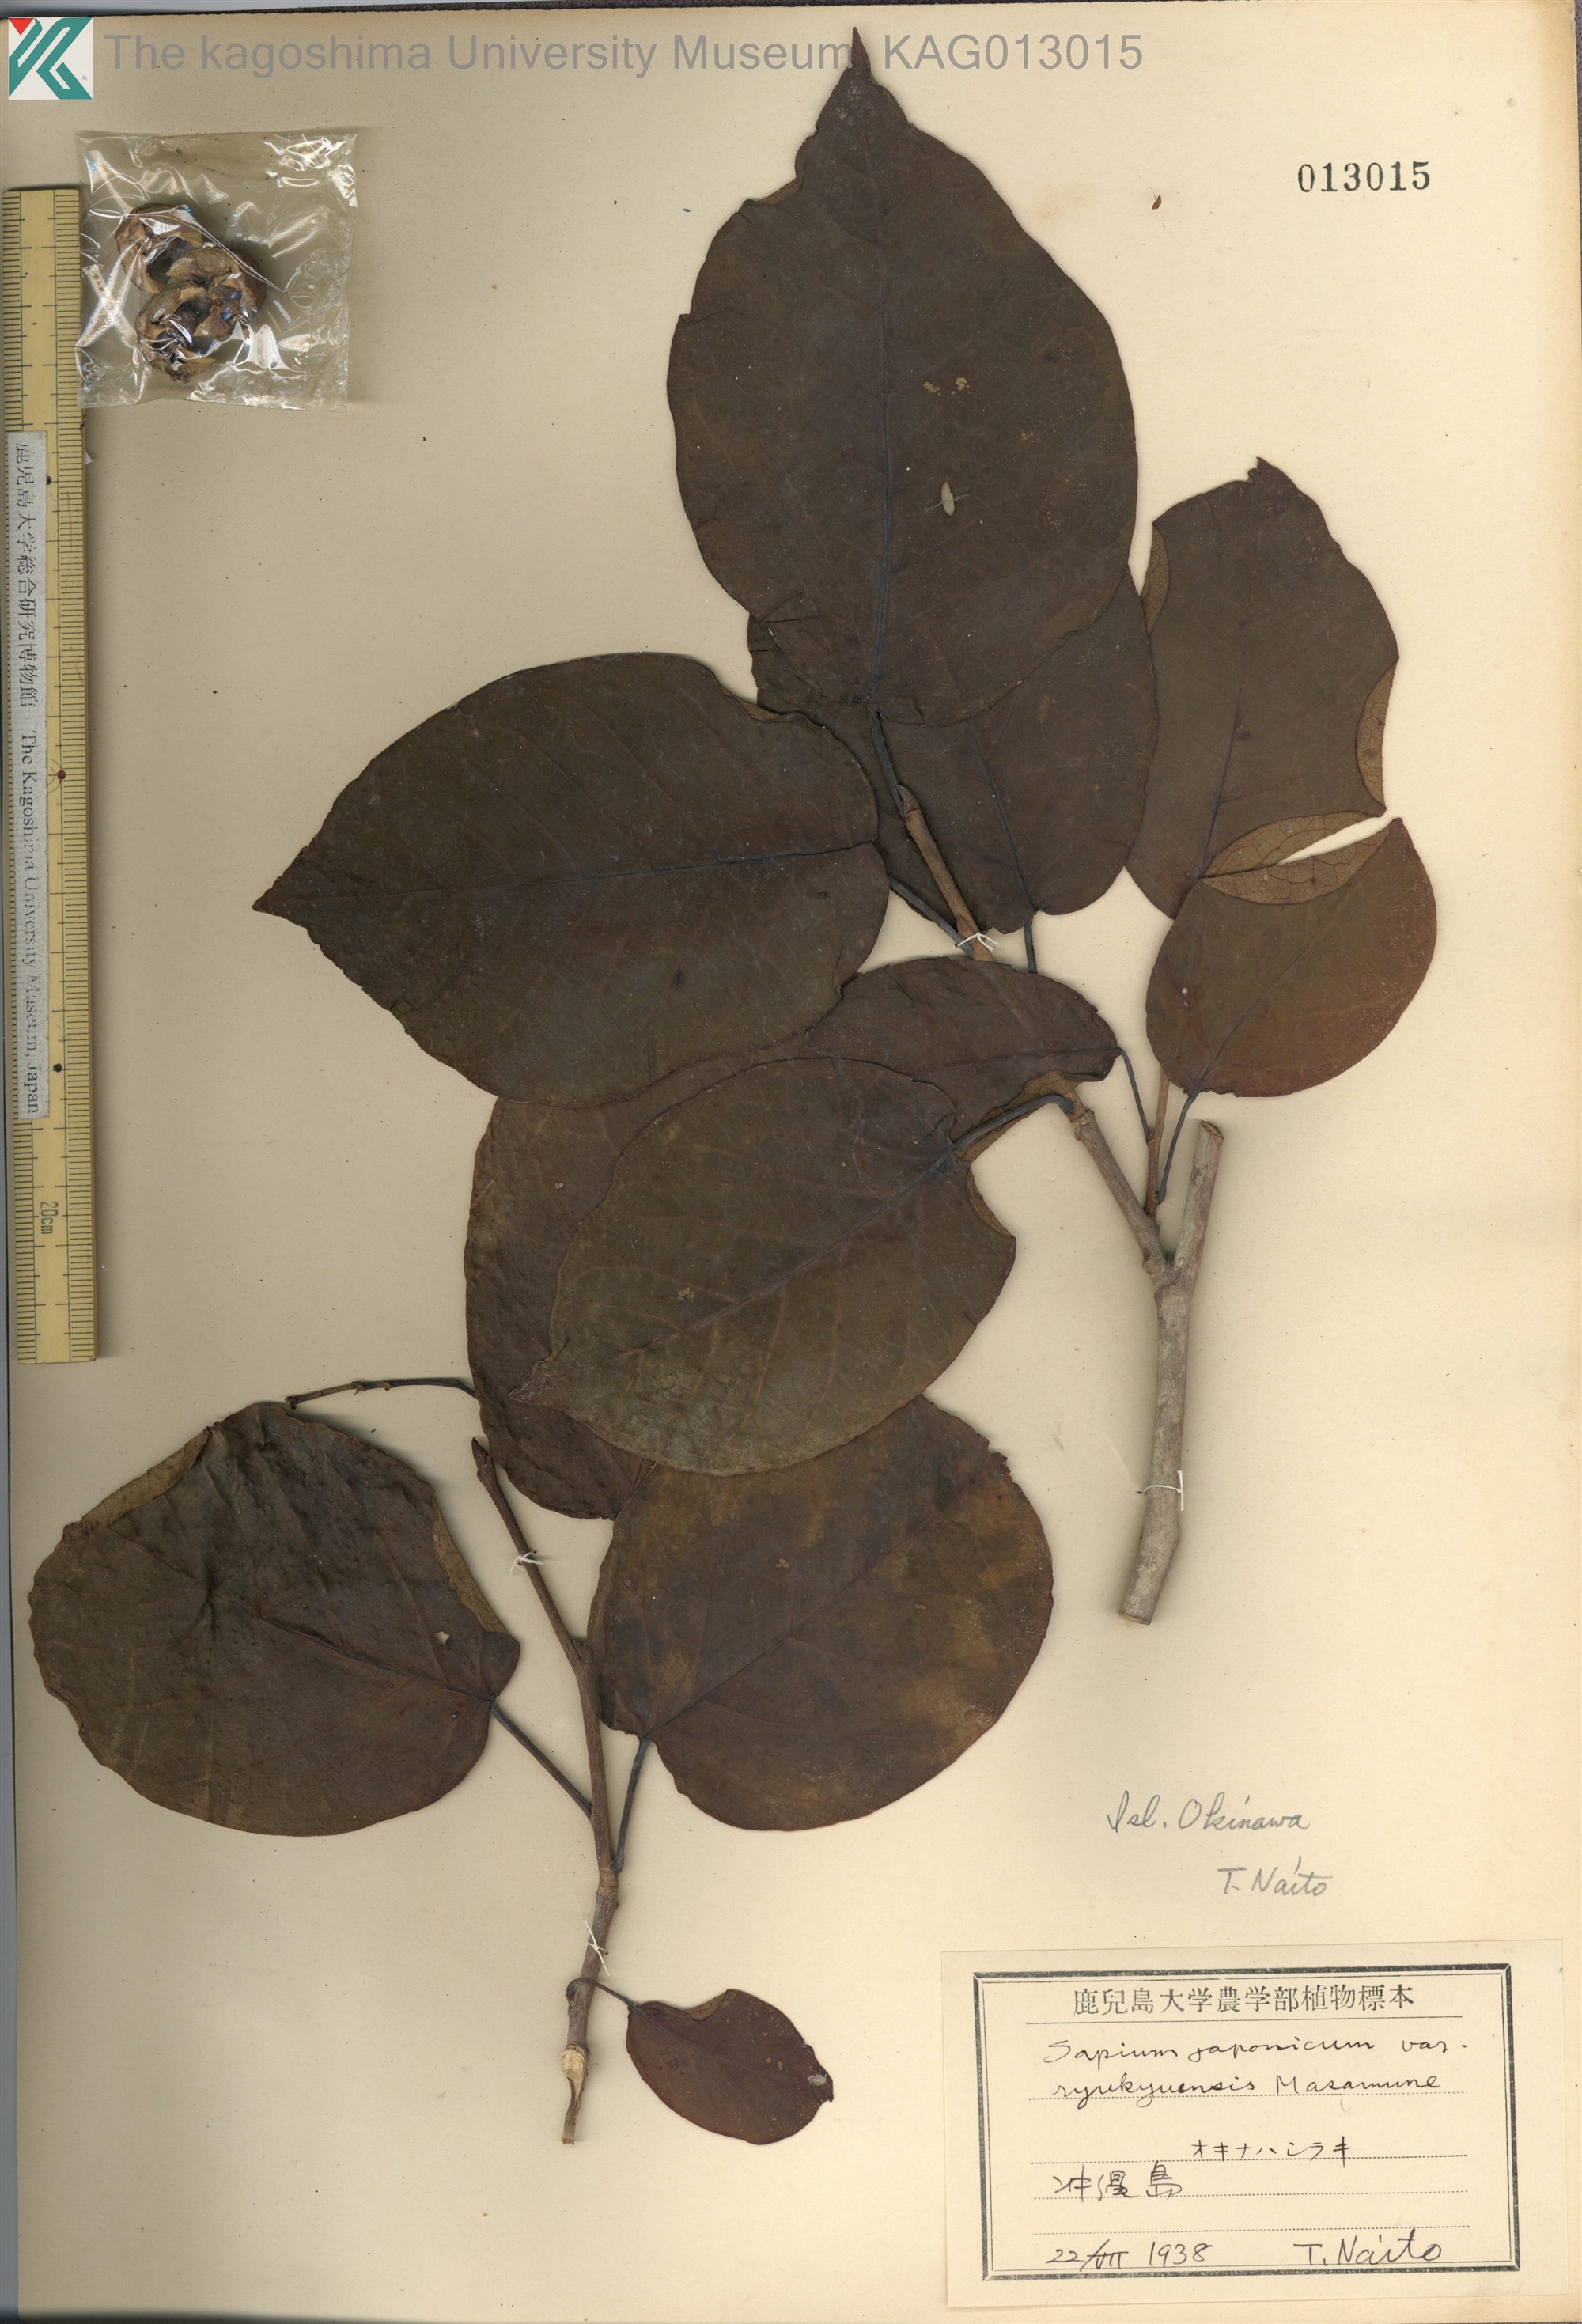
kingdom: Plantae
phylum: Tracheophyta
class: Magnoliopsida
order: Malpighiales
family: Euphorbiaceae
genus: Neoshirakia
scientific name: Neoshirakia japonica
